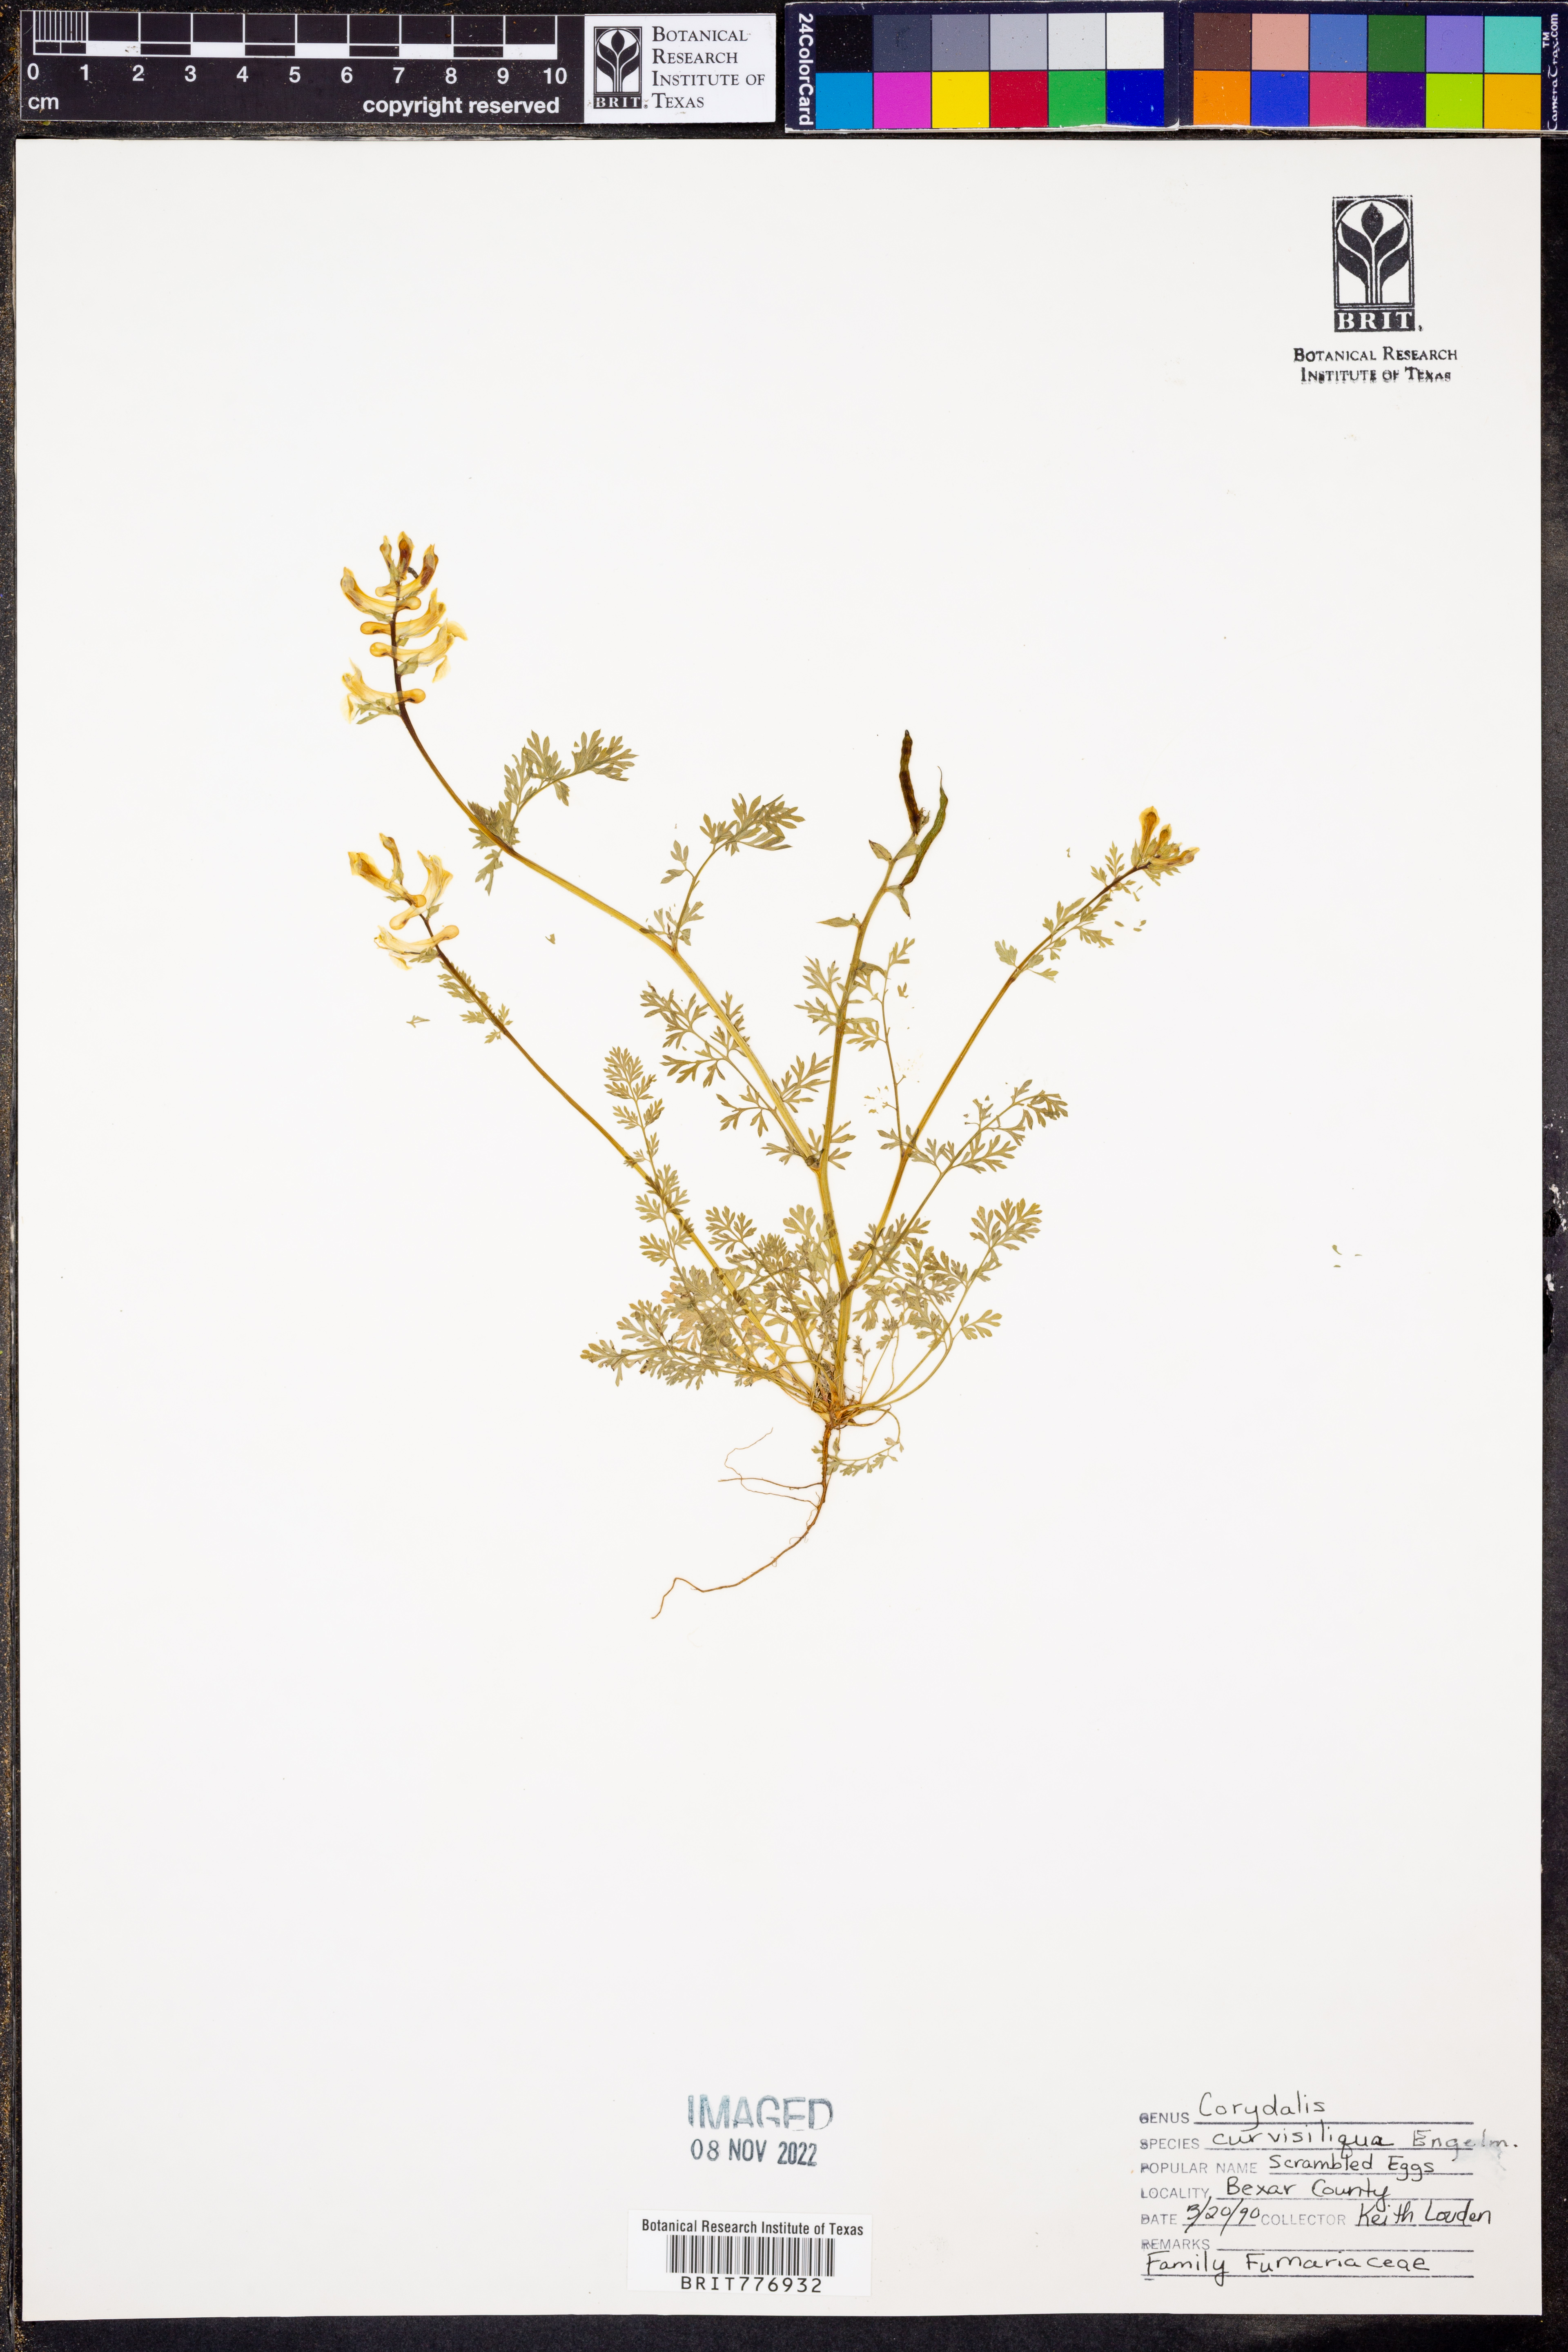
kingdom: Plantae
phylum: Tracheophyta
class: Magnoliopsida
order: Ranunculales
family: Papaveraceae
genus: Corydalis
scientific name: Corydalis curvisiliqua
